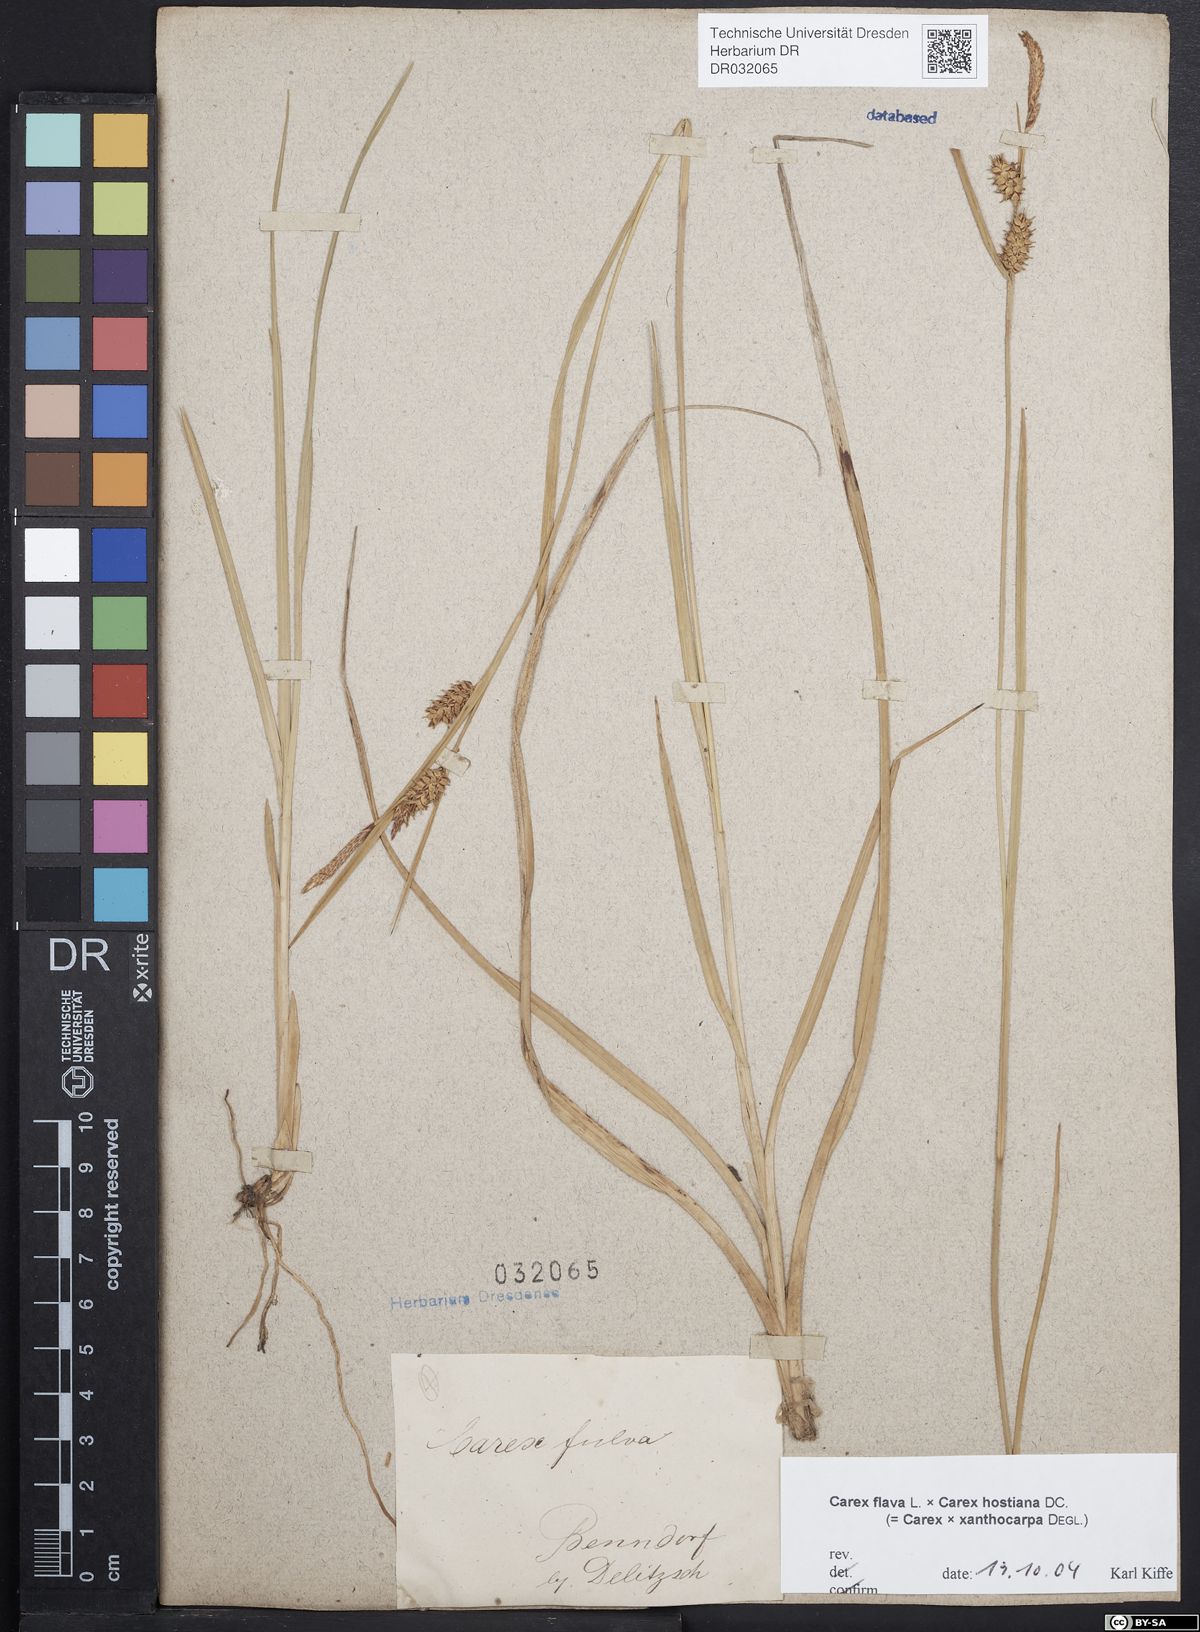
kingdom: Plantae
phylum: Tracheophyta
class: Liliopsida
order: Poales
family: Cyperaceae
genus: Carex
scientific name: Carex hostiana
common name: Tawny sedge
